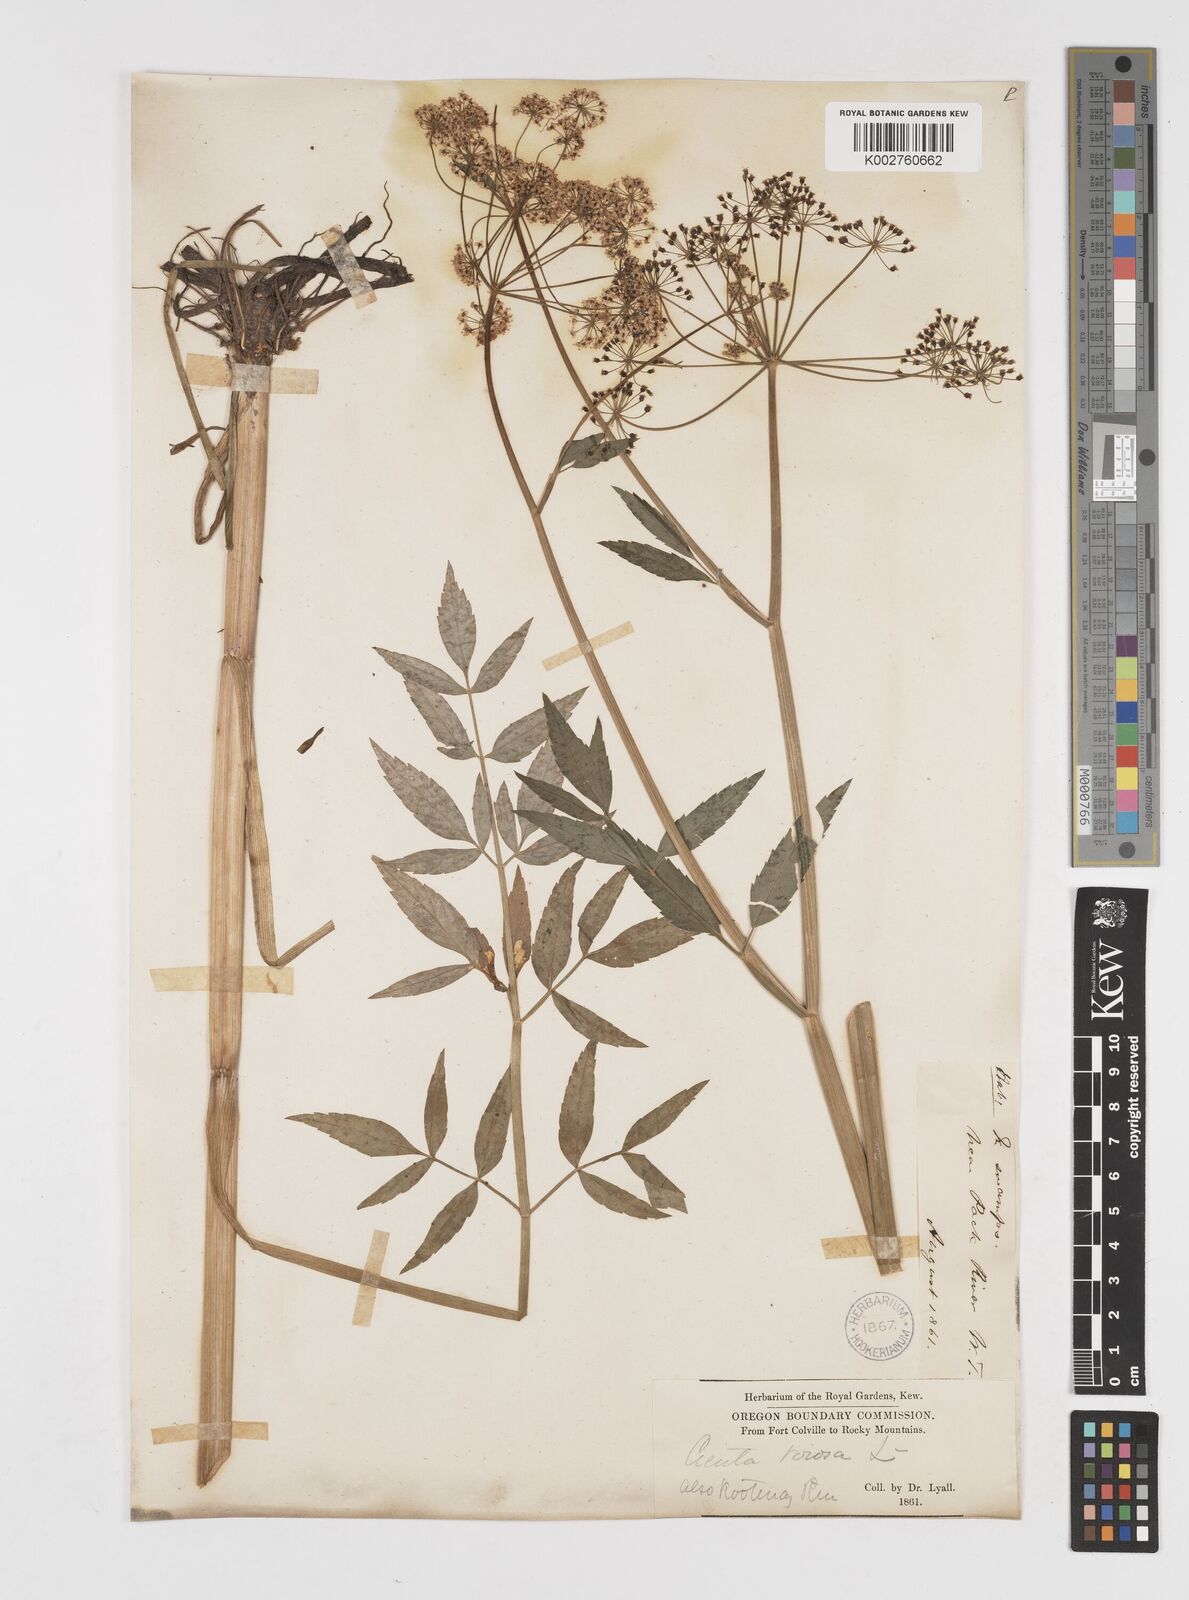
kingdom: Plantae
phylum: Tracheophyta
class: Magnoliopsida
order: Apiales
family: Apiaceae
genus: Cicuta
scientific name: Cicuta douglasii
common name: Western water-hemlock
